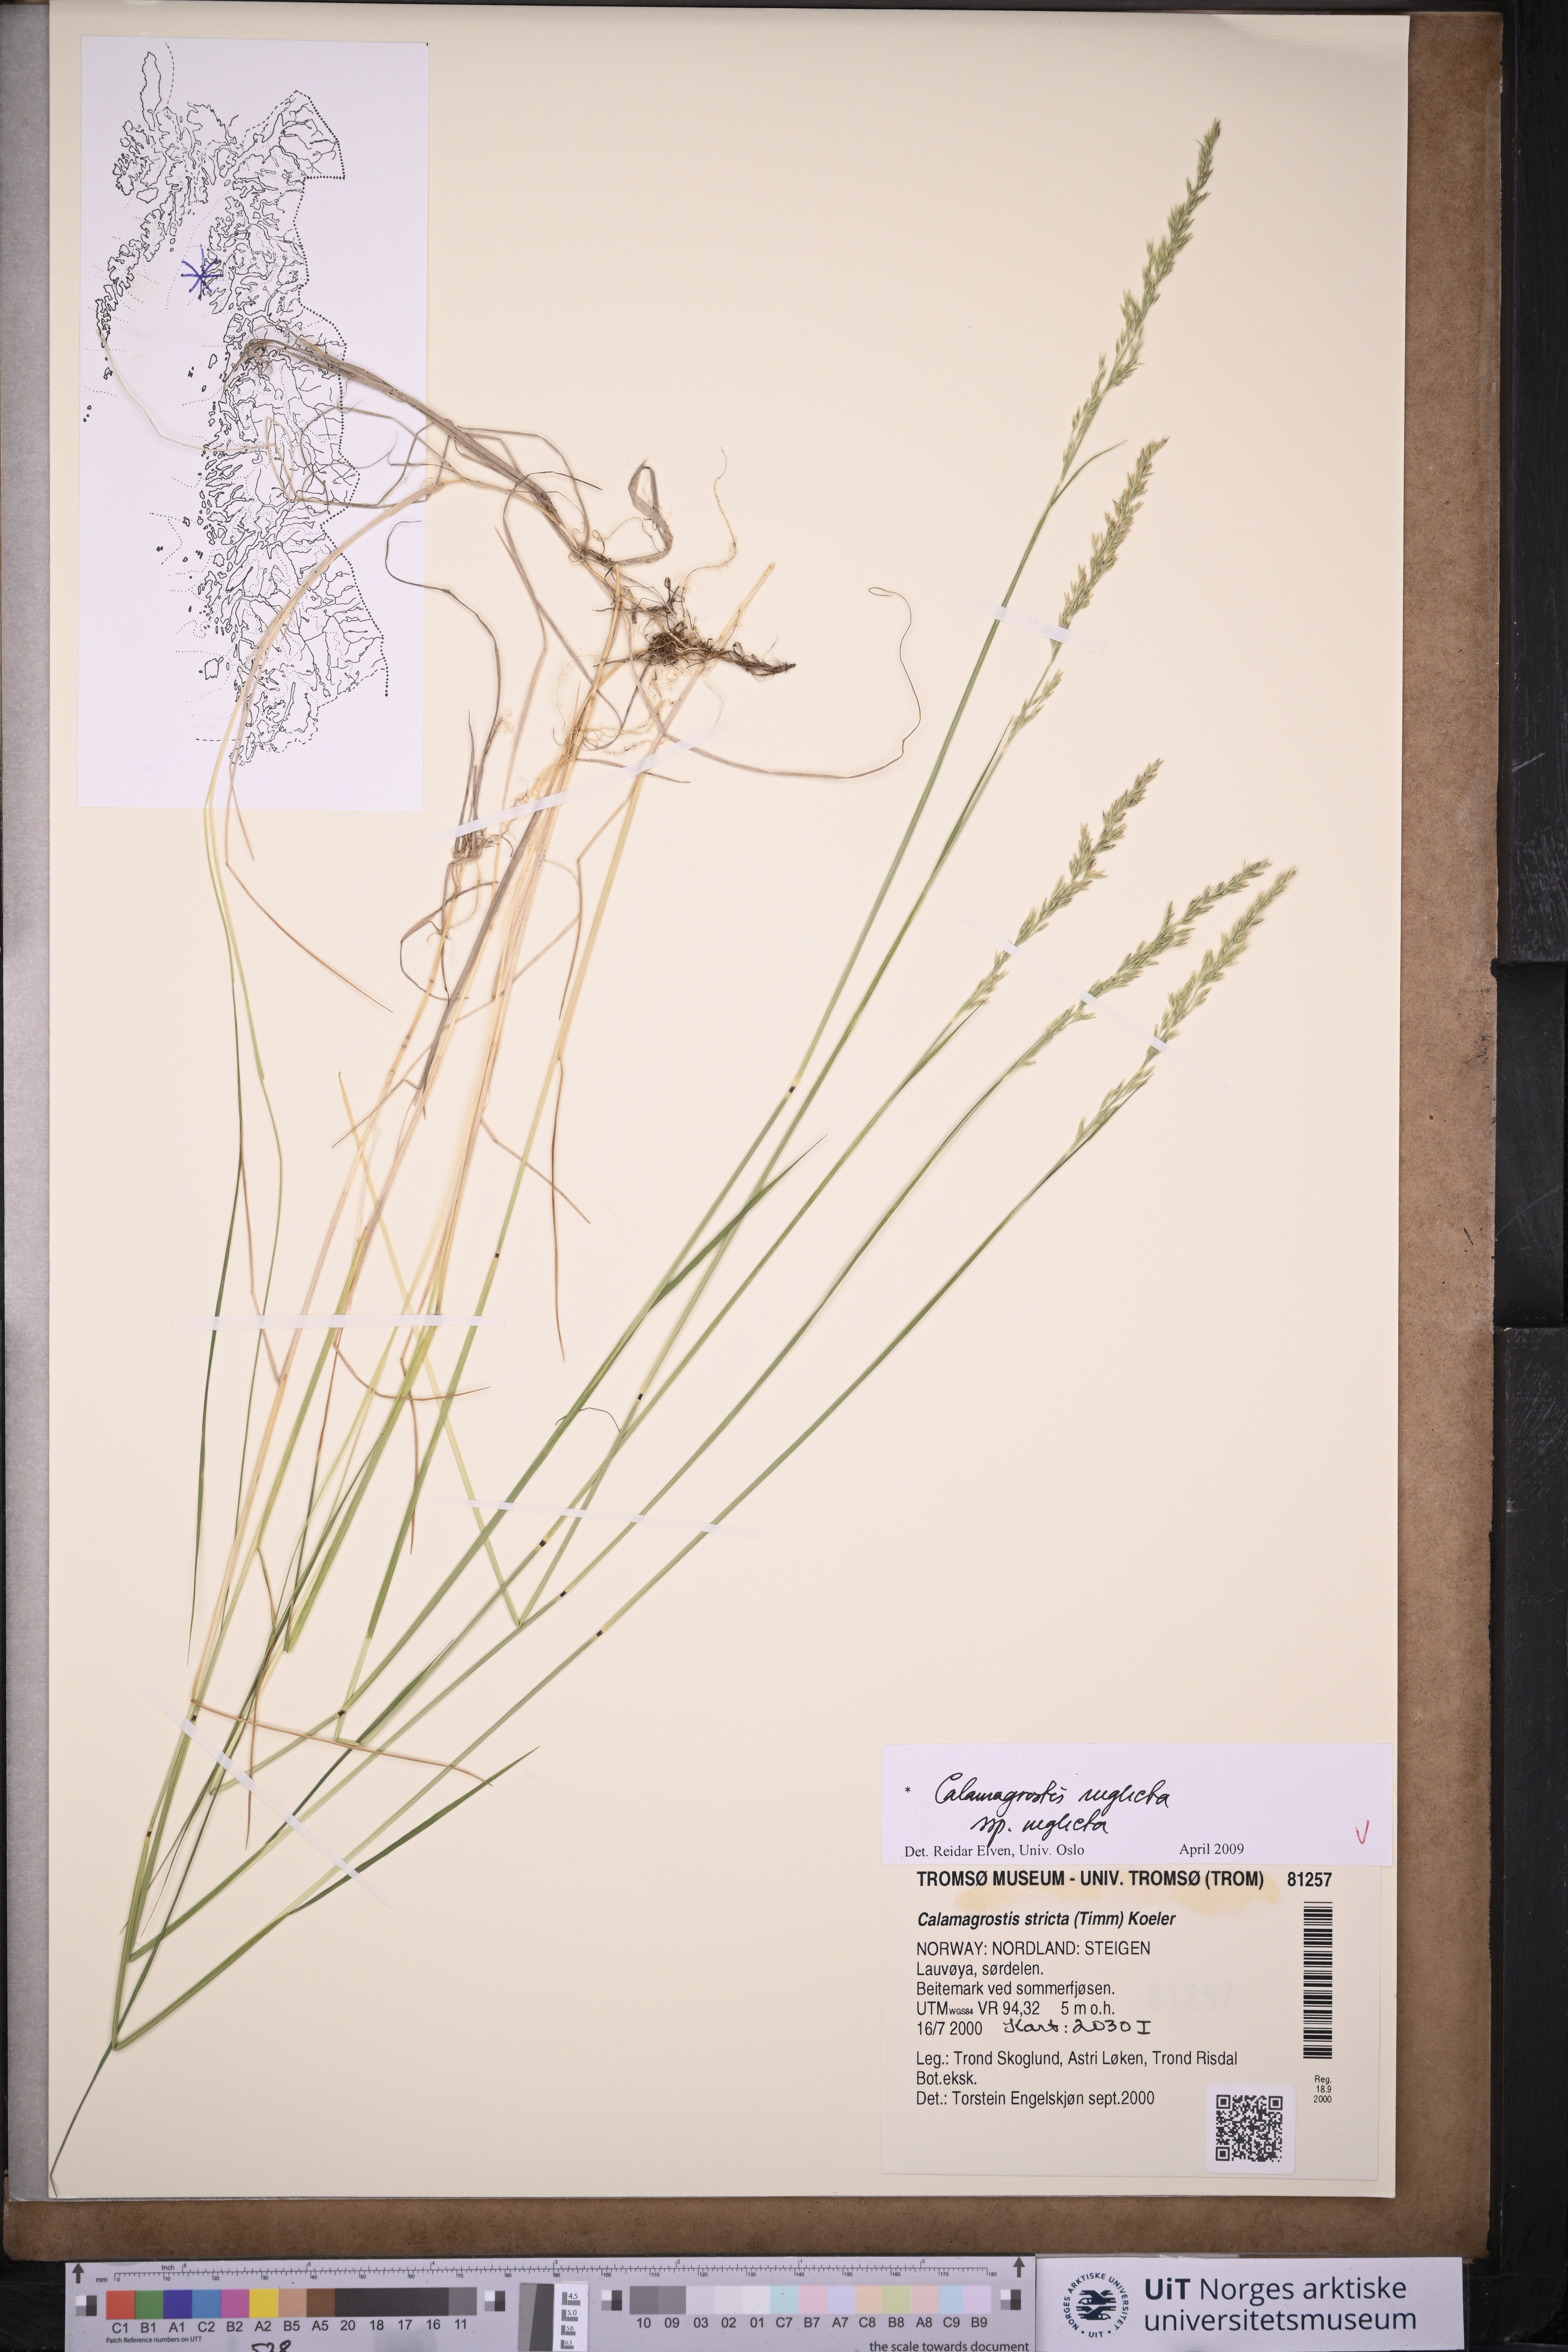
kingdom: Plantae
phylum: Tracheophyta
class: Liliopsida
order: Poales
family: Poaceae
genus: Achnatherum
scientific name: Achnatherum calamagrostis
